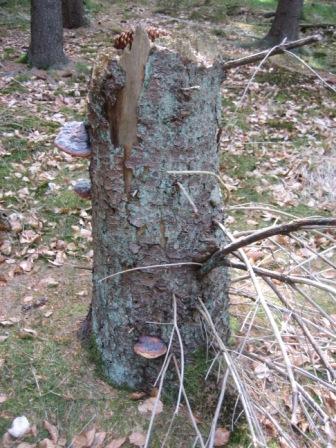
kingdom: Fungi
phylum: Ascomycota
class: Lecanoromycetes
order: Lecanorales
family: Stereocaulaceae
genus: Lepraria
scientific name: Lepraria incana
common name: almindelig støvlav
